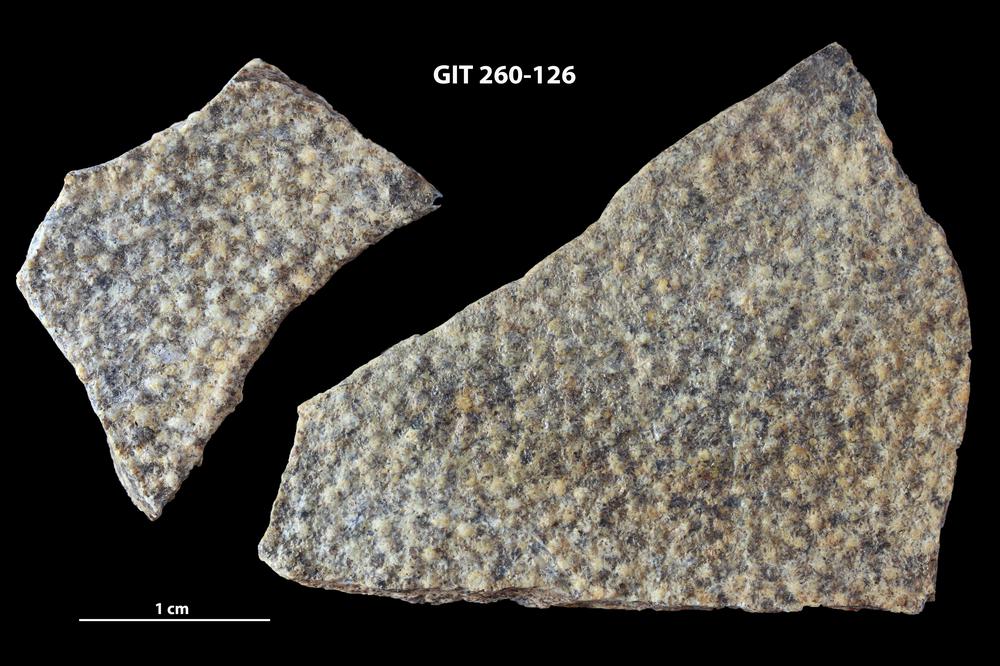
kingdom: Animalia
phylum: Chordata
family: Homostiidae
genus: Homostius
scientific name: Homostius
